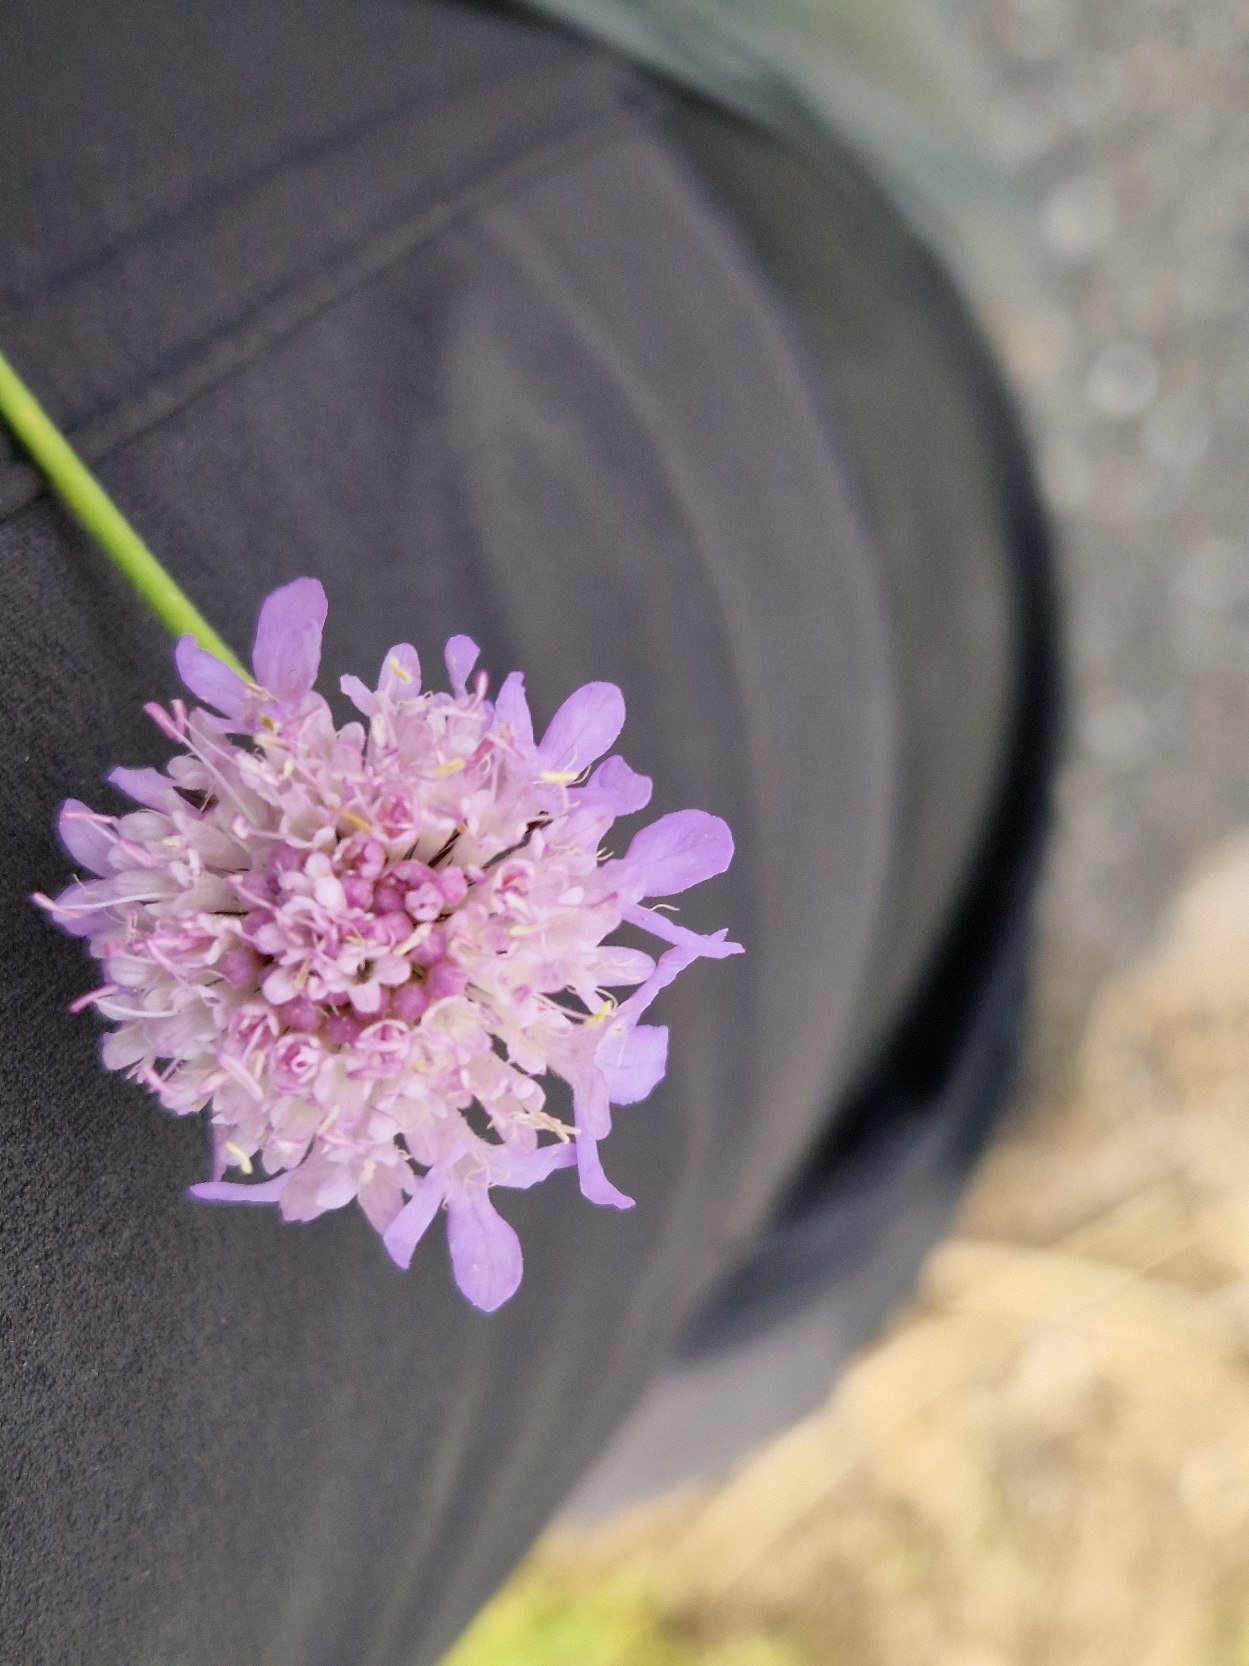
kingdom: Plantae
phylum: Tracheophyta
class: Magnoliopsida
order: Dipsacales
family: Caprifoliaceae
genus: Scabiosa
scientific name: Scabiosa columbaria
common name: Due-skabiose
